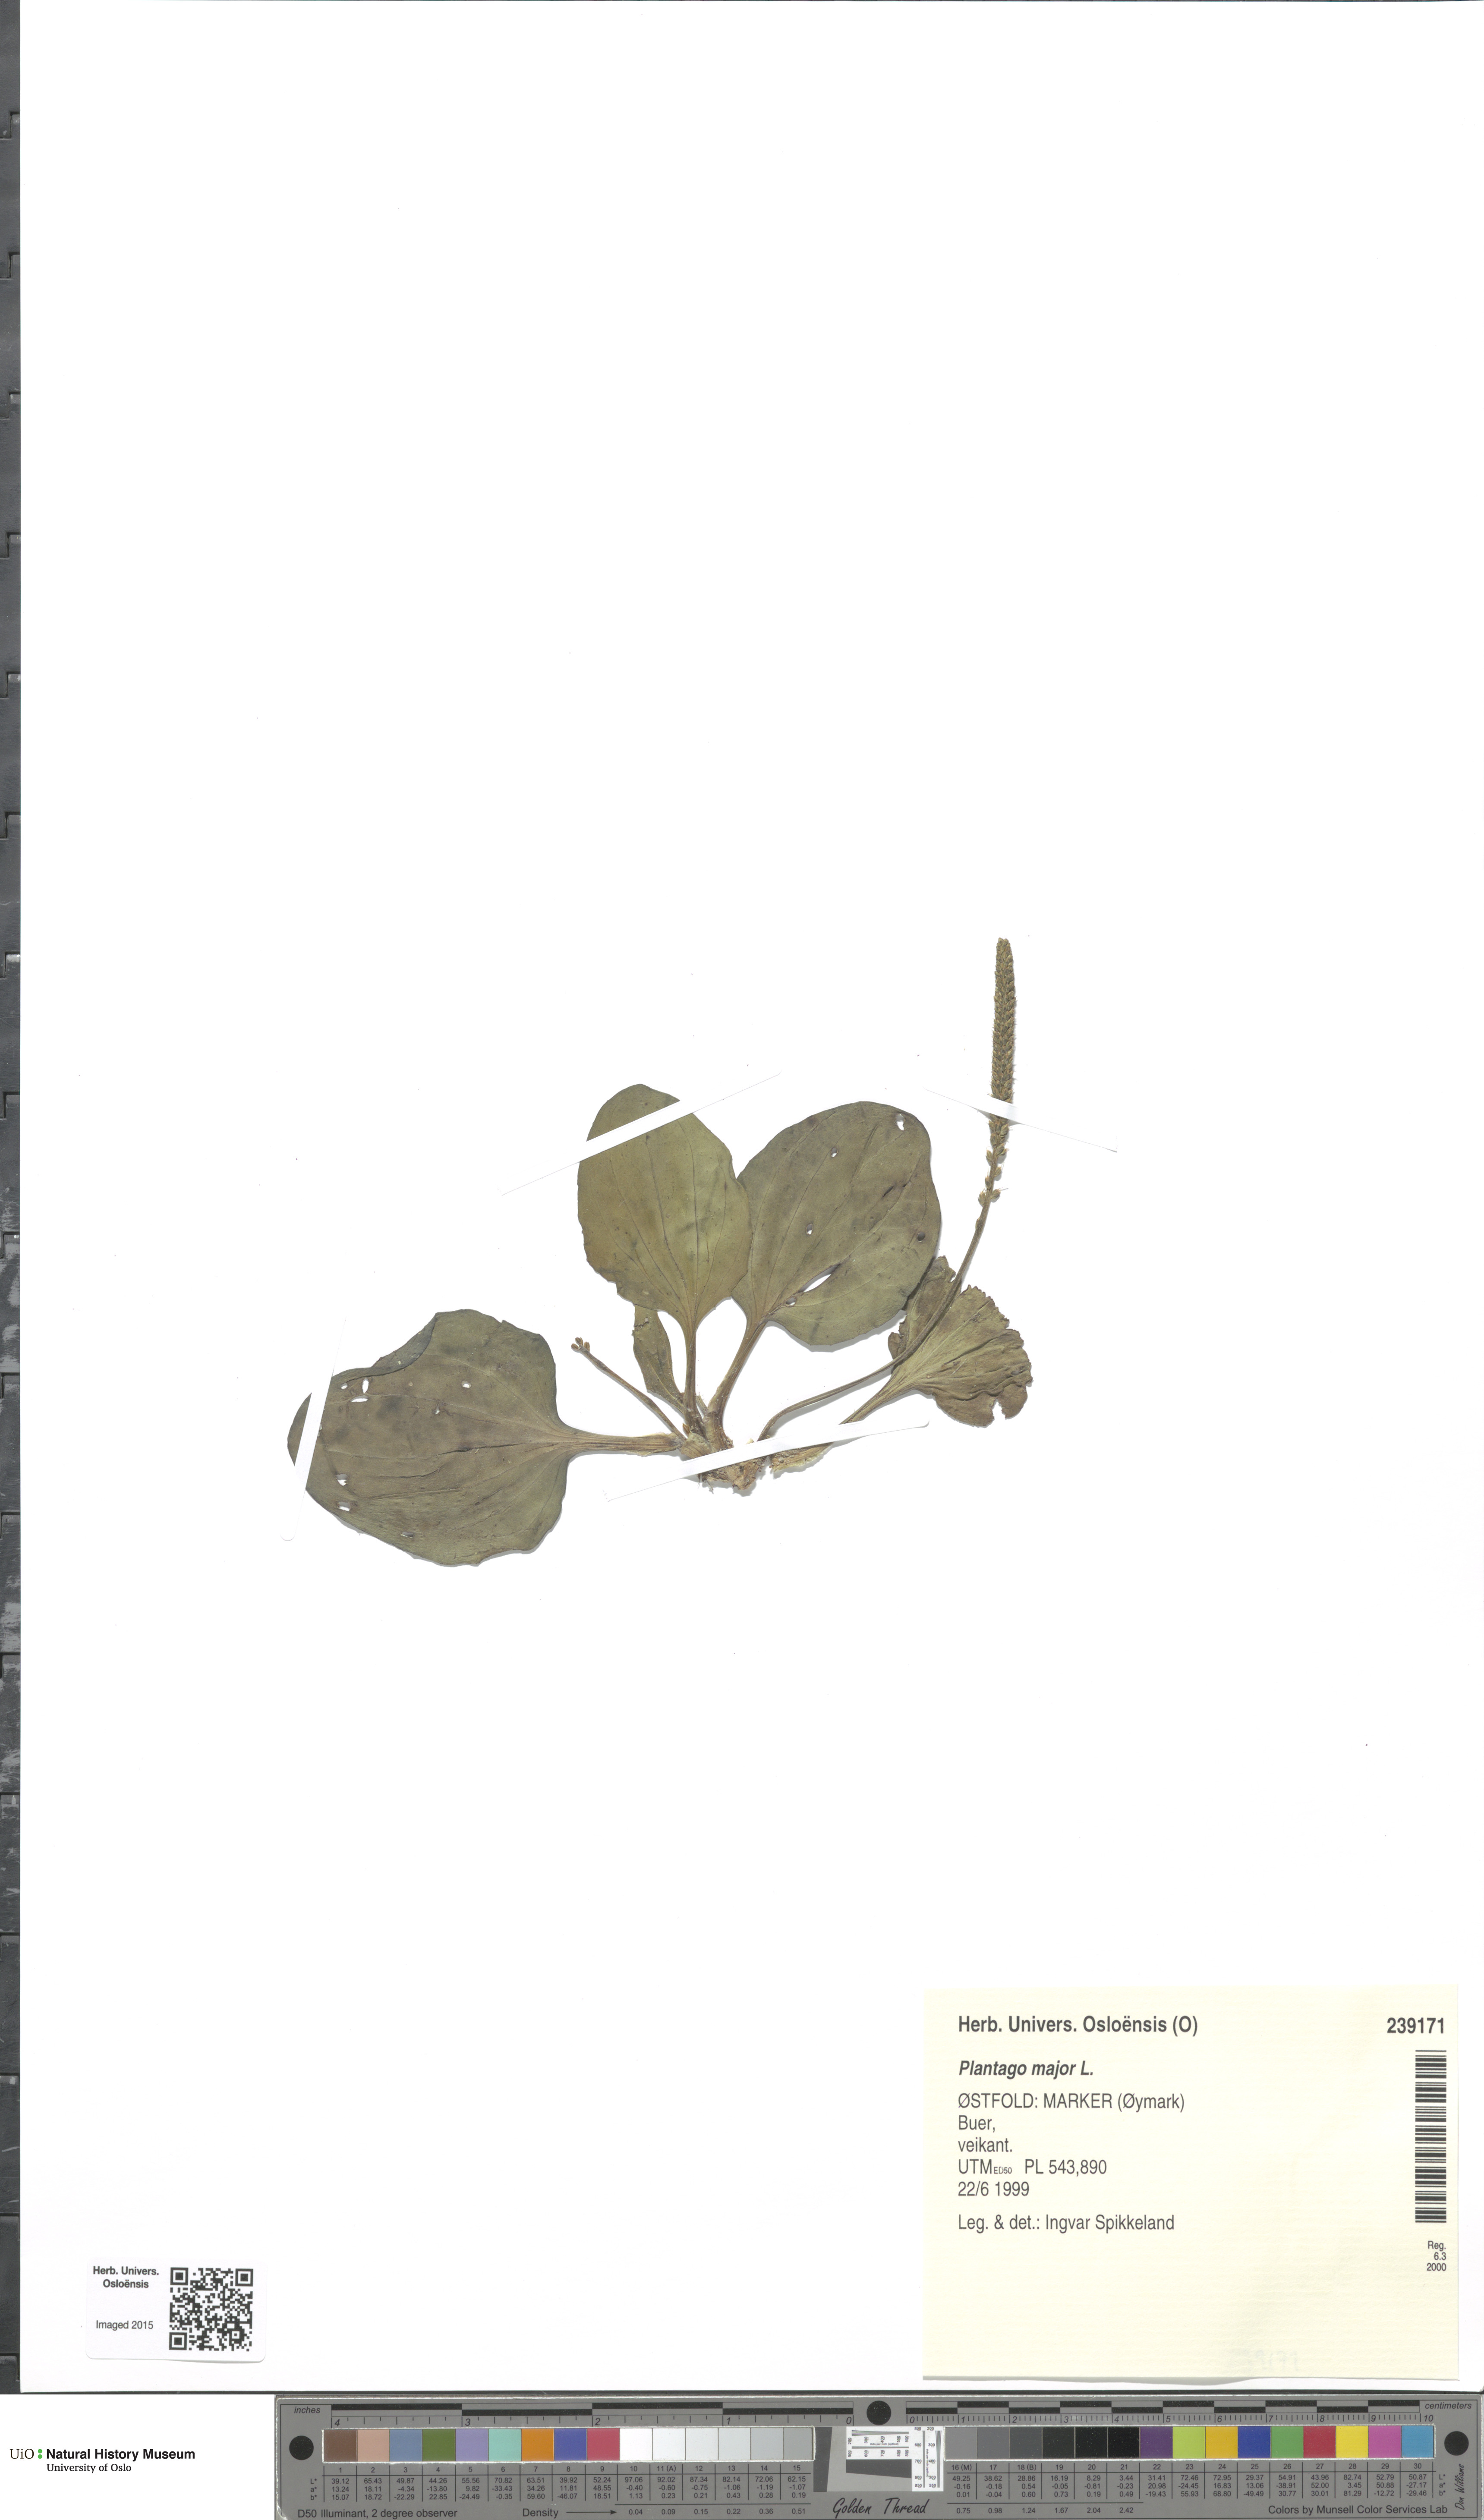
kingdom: Plantae
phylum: Tracheophyta
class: Magnoliopsida
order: Lamiales
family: Plantaginaceae
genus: Plantago
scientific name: Plantago major
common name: Common plantain
